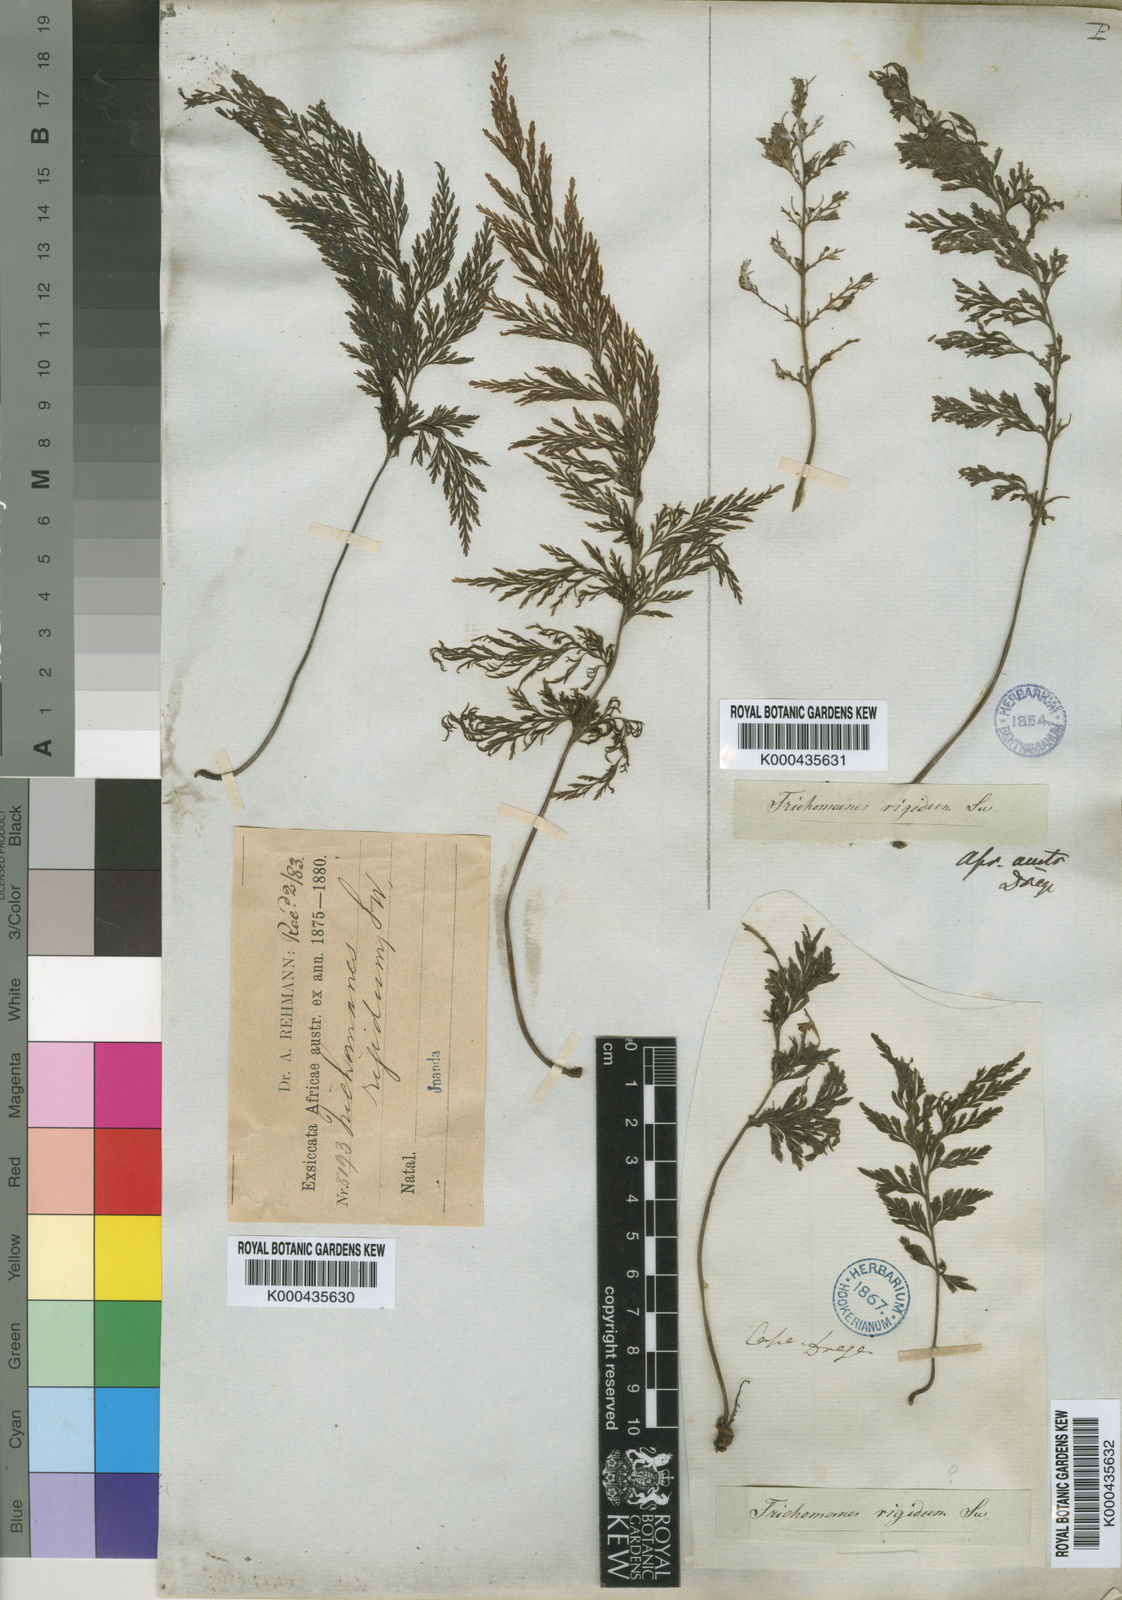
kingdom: Plantae
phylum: Tracheophyta
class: Polypodiopsida
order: Hymenophyllales
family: Hymenophyllaceae
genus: Abrodictyum
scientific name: Abrodictyum dregei
